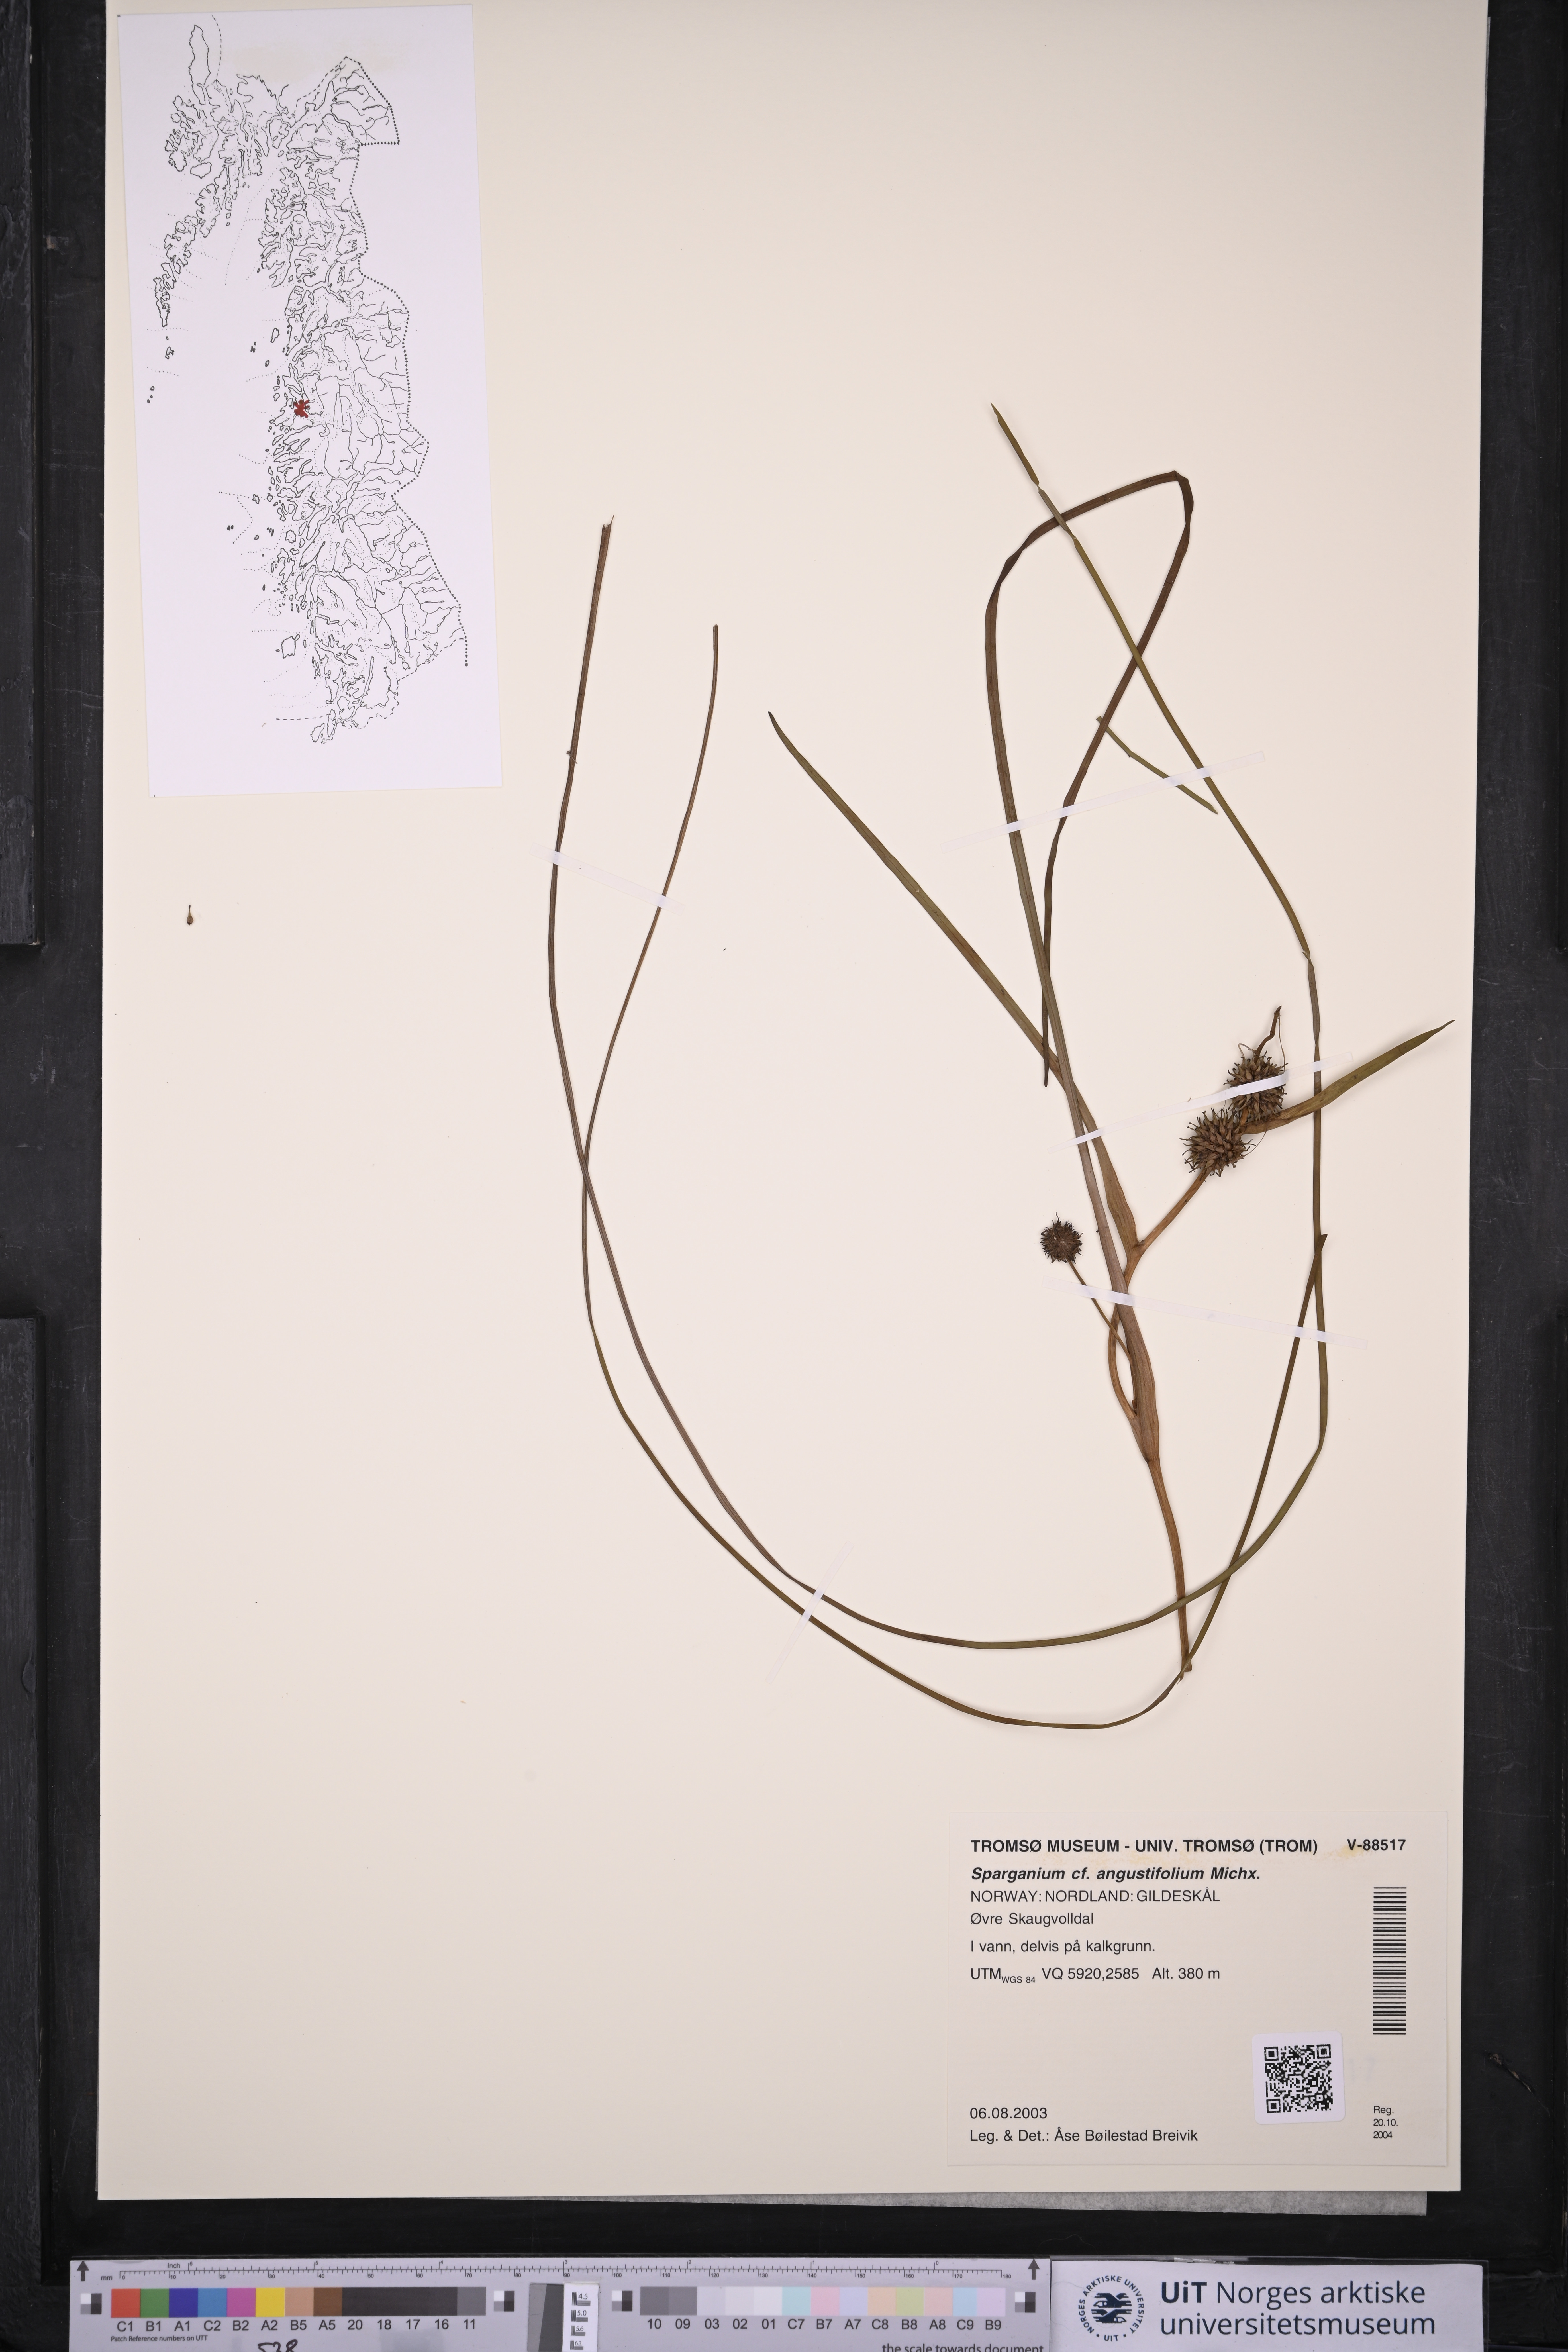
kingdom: Plantae
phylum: Tracheophyta
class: Liliopsida
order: Poales
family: Typhaceae
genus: Sparganium
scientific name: Sparganium angustifolium
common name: Floating bur-reed
